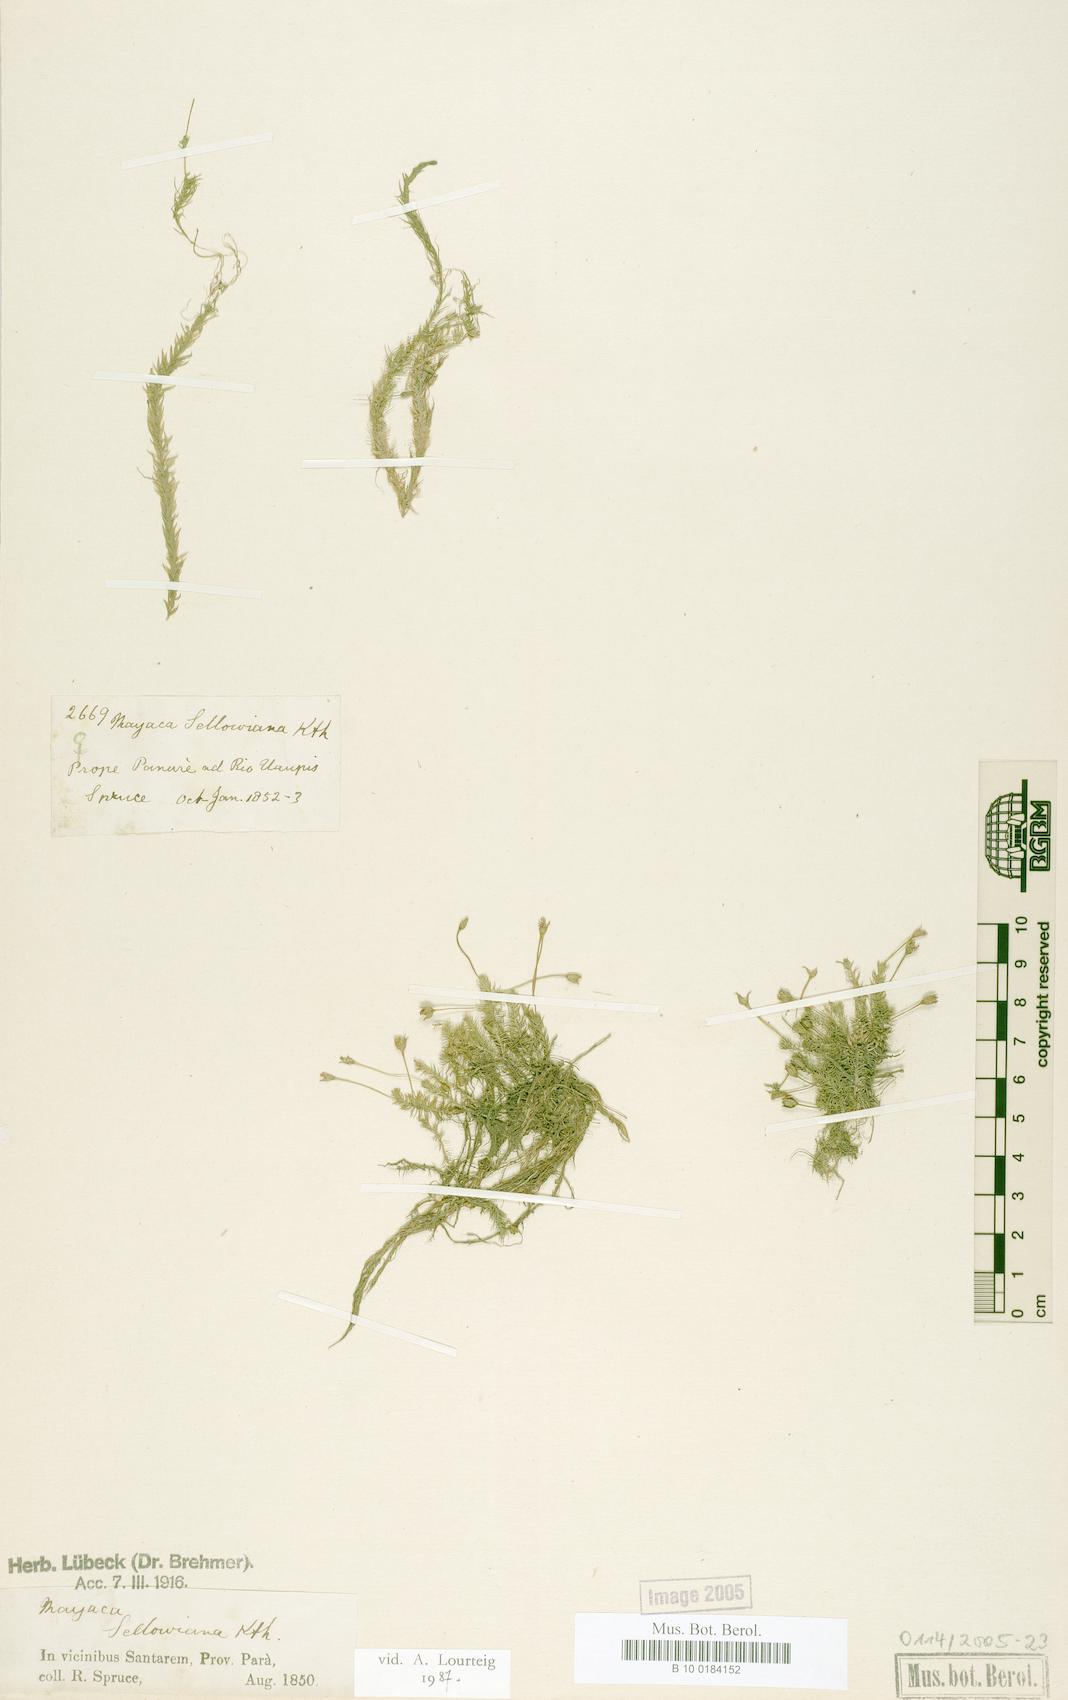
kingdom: Plantae
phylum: Tracheophyta
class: Liliopsida
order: Poales
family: Mayacaceae
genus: Mayaca
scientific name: Mayaca sellowiana
